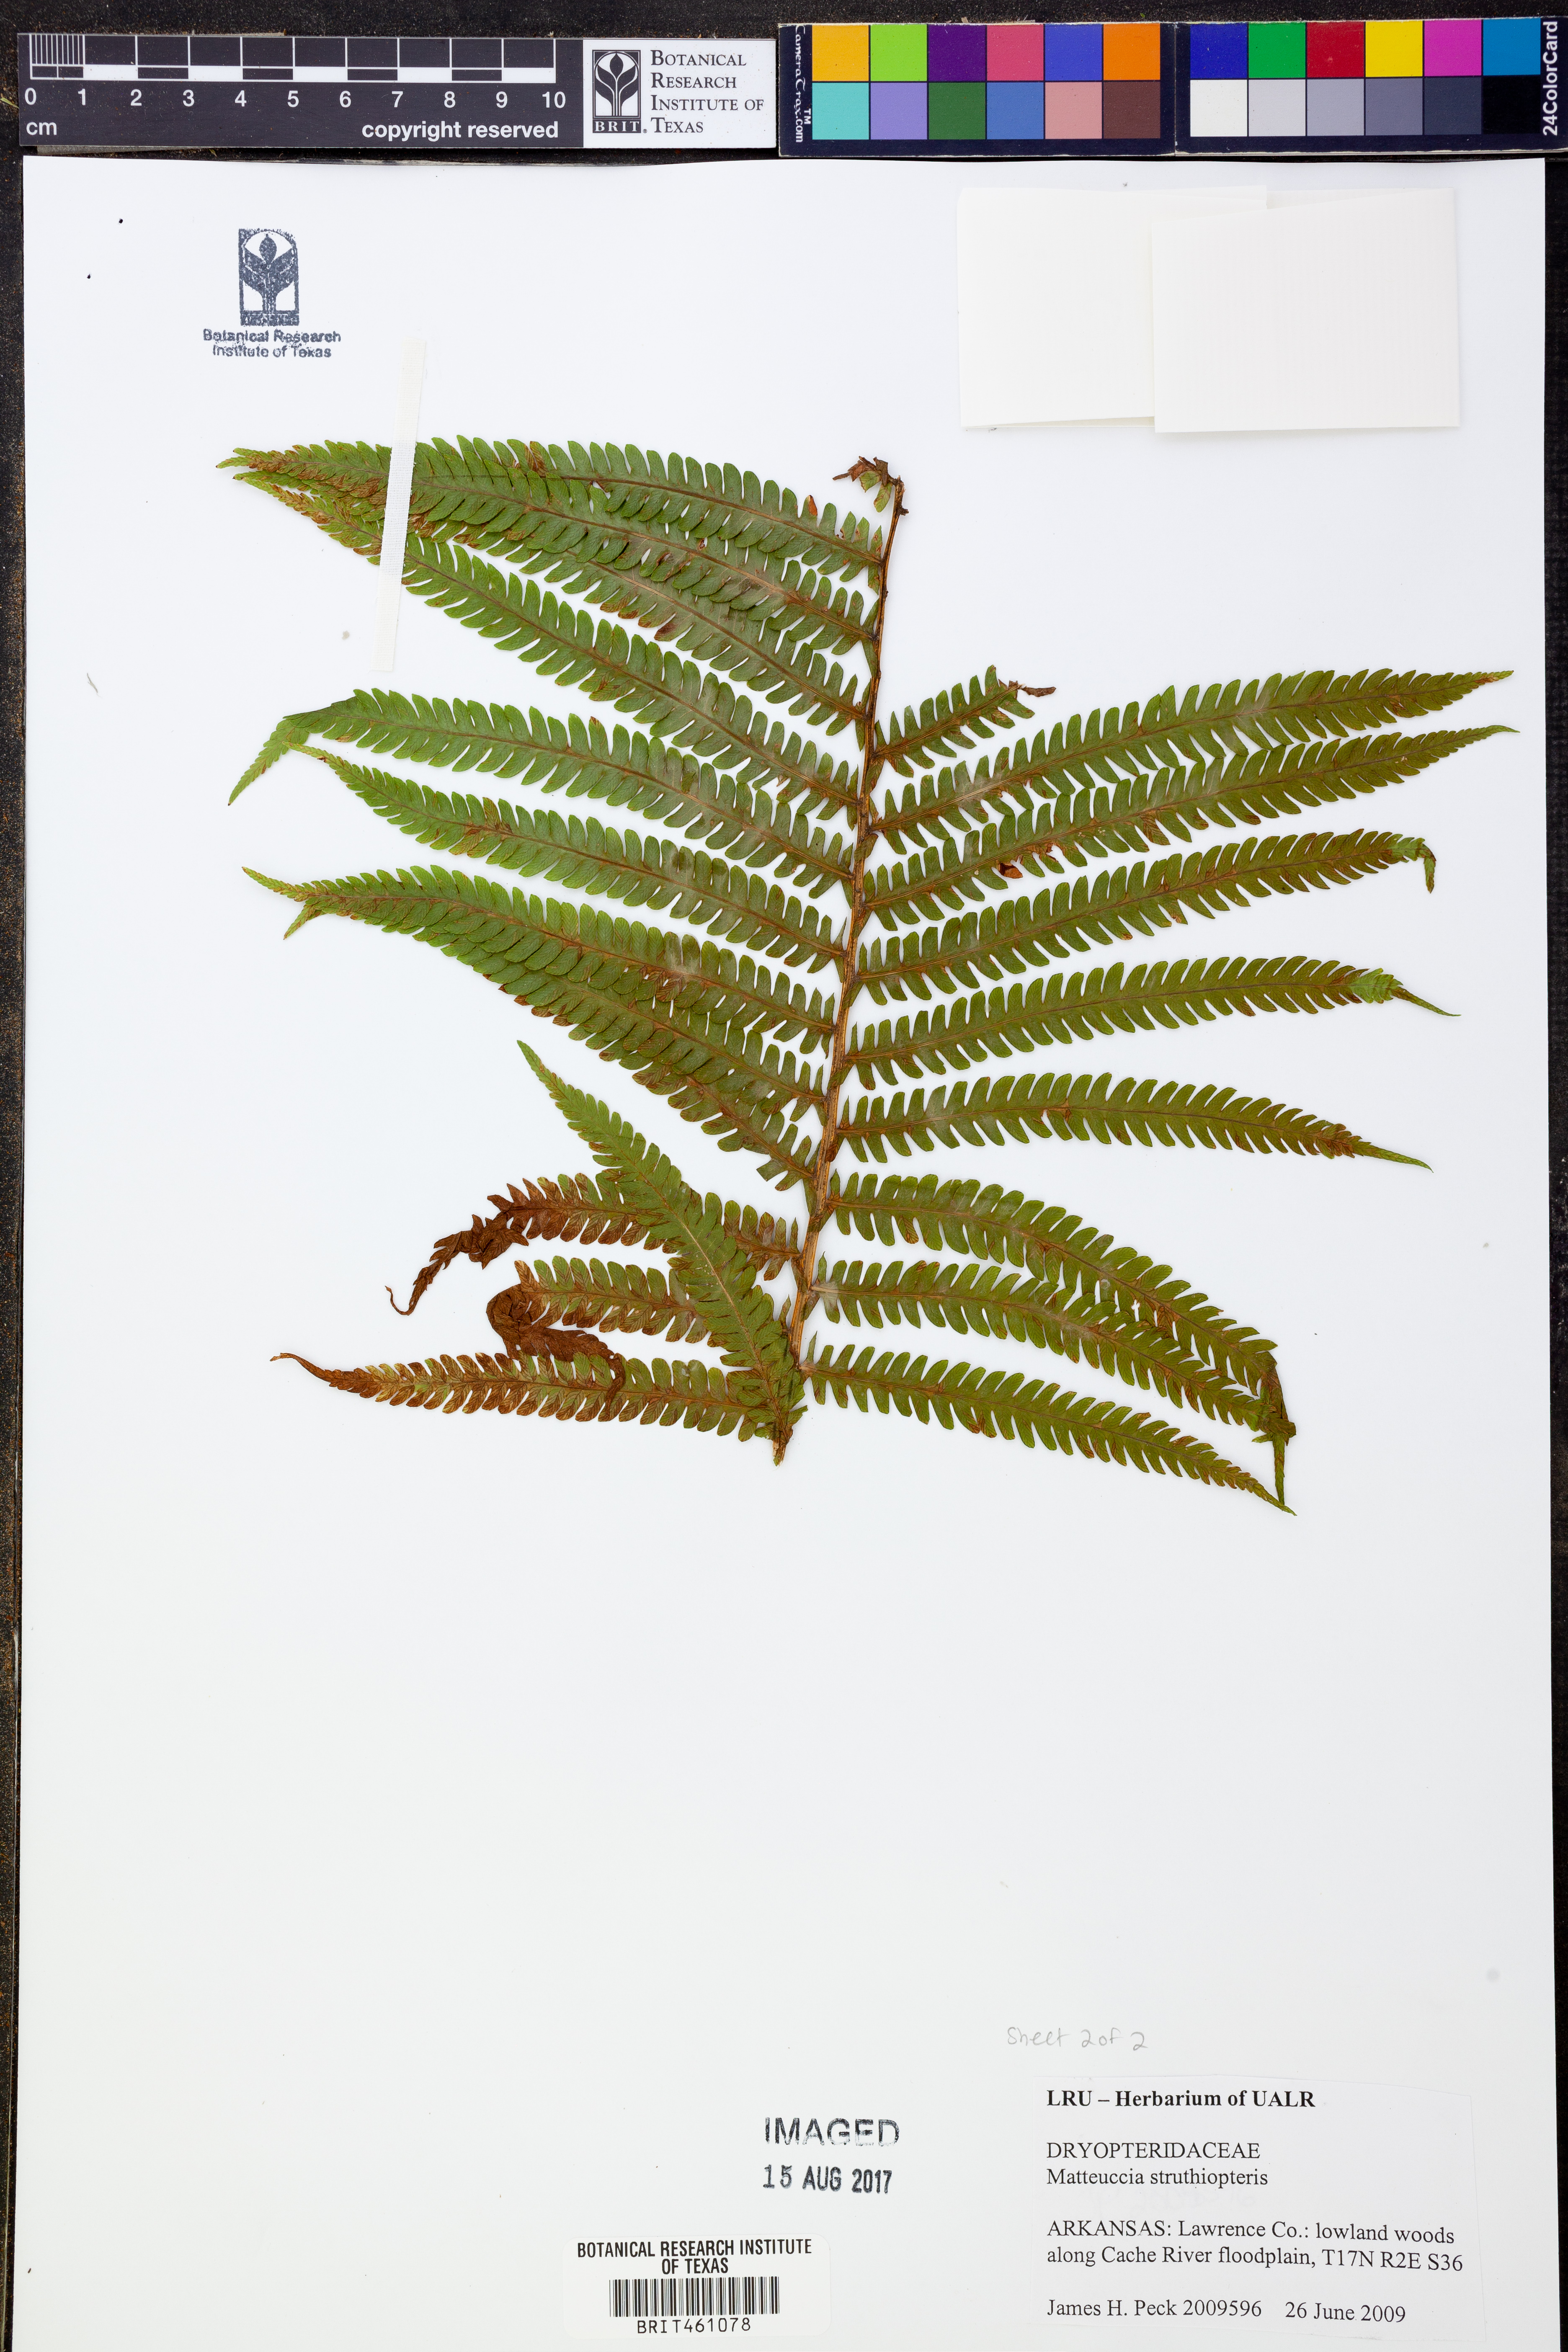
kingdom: Plantae
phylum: Tracheophyta
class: Polypodiopsida
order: Polypodiales
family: Onocleaceae
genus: Matteuccia
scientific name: Matteuccia struthiopteris
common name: Ostrich fern
